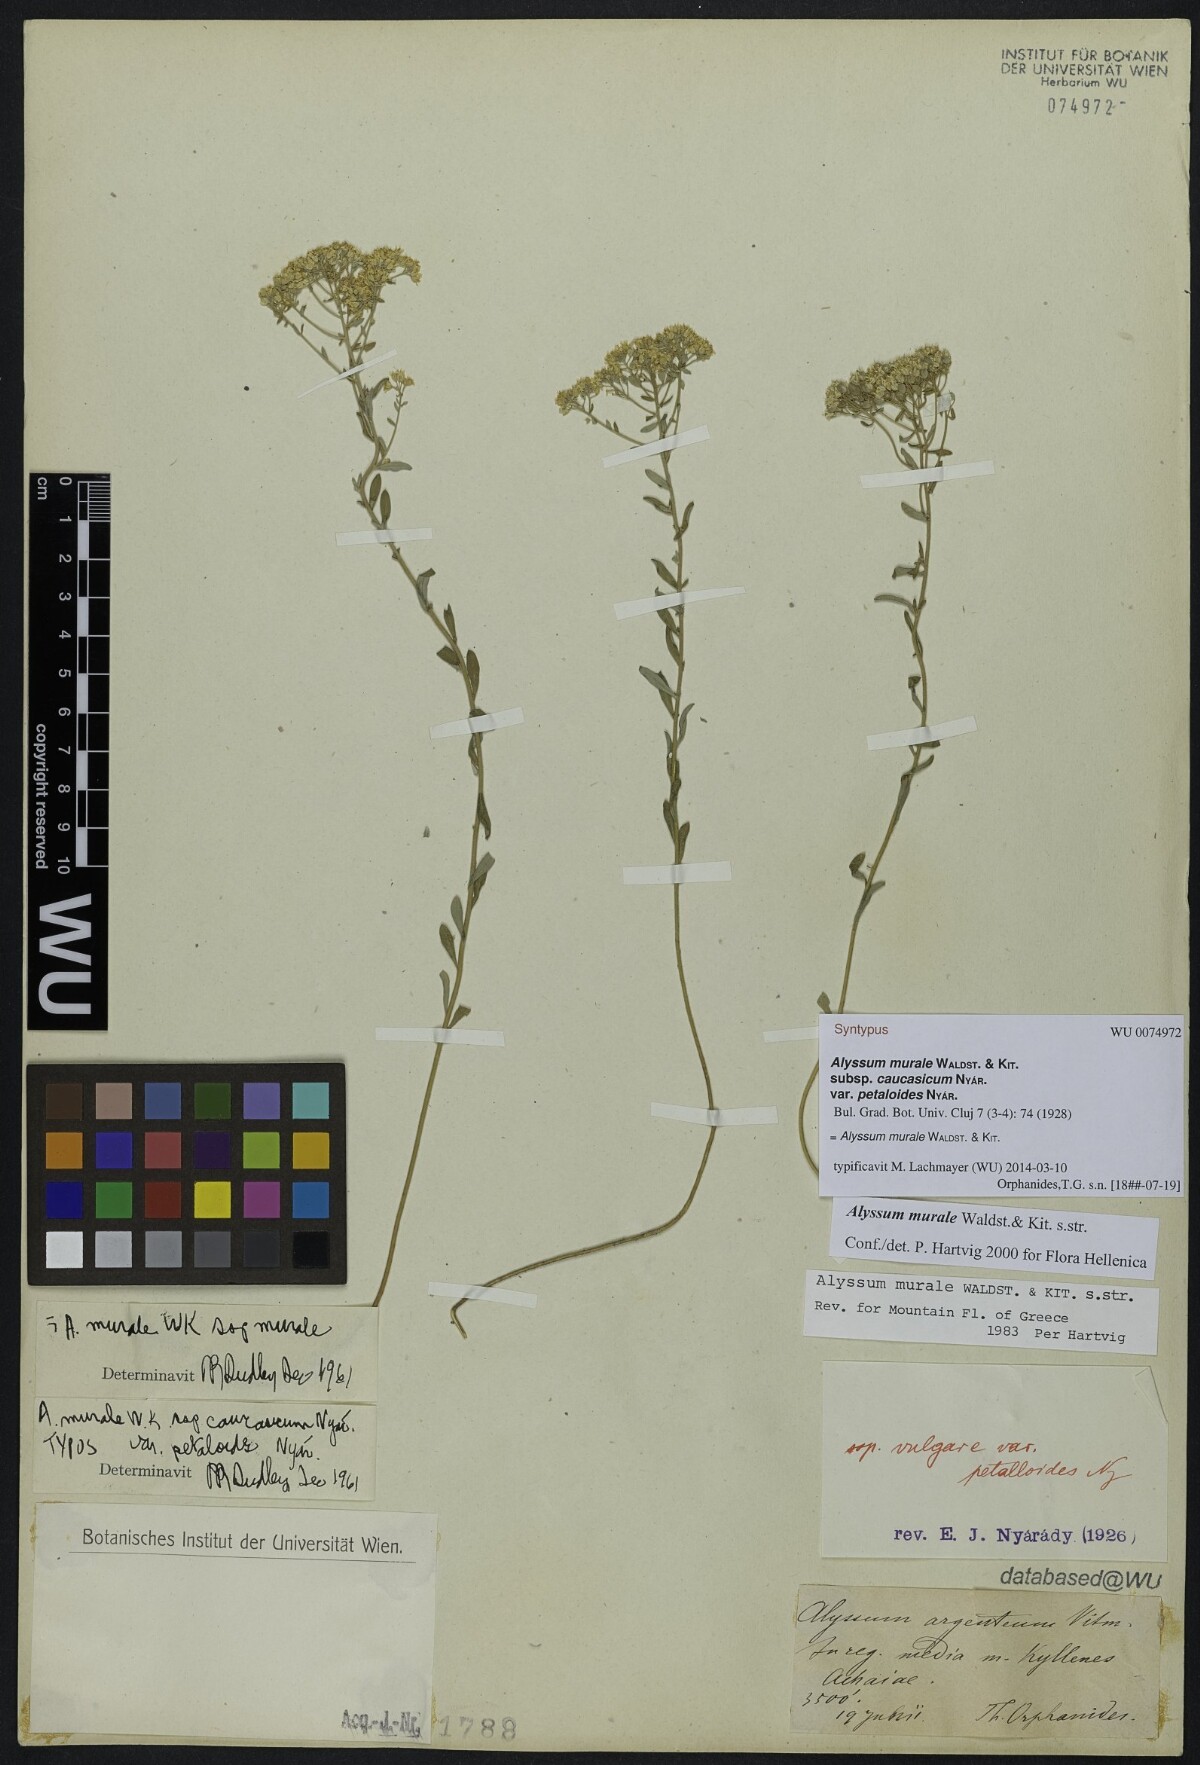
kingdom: Plantae
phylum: Tracheophyta
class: Magnoliopsida
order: Brassicales
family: Brassicaceae
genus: Odontarrhena
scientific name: Odontarrhena muralis
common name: Rock alyssum
